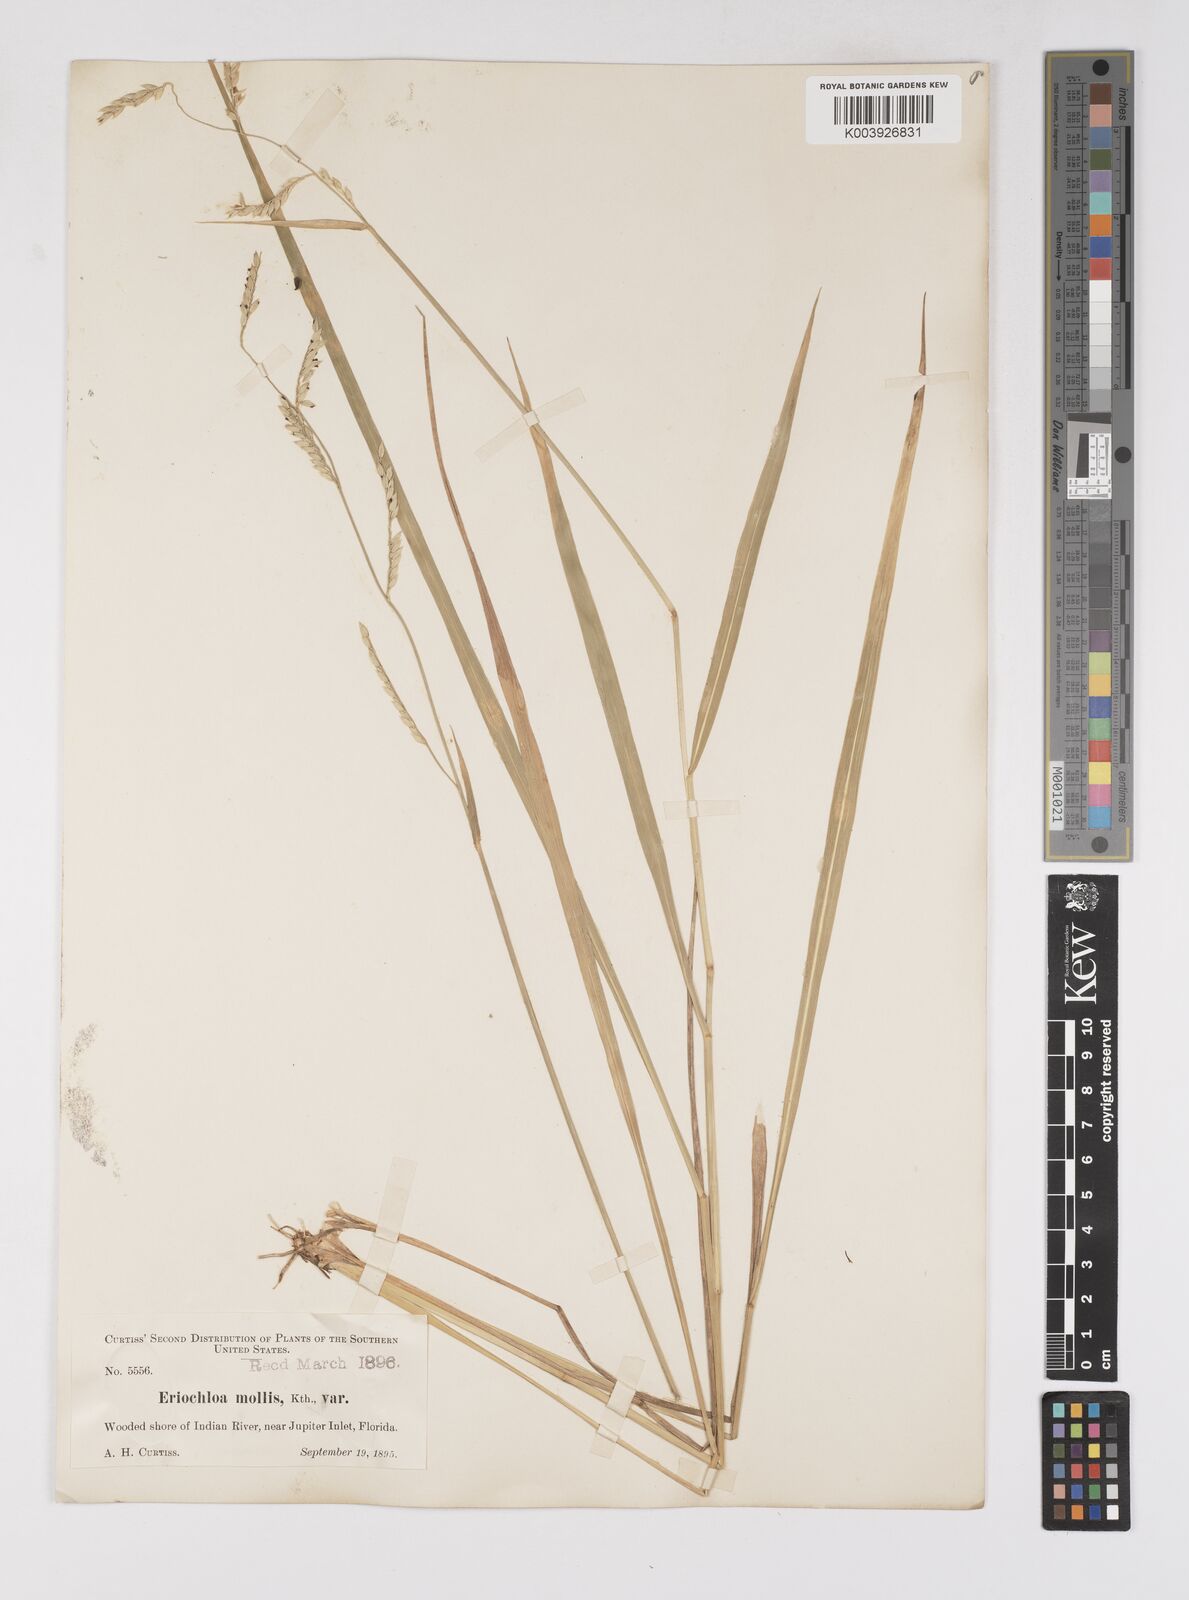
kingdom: Plantae
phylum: Tracheophyta
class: Liliopsida
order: Poales
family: Poaceae
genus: Eriochloa
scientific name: Eriochloa michauxii
